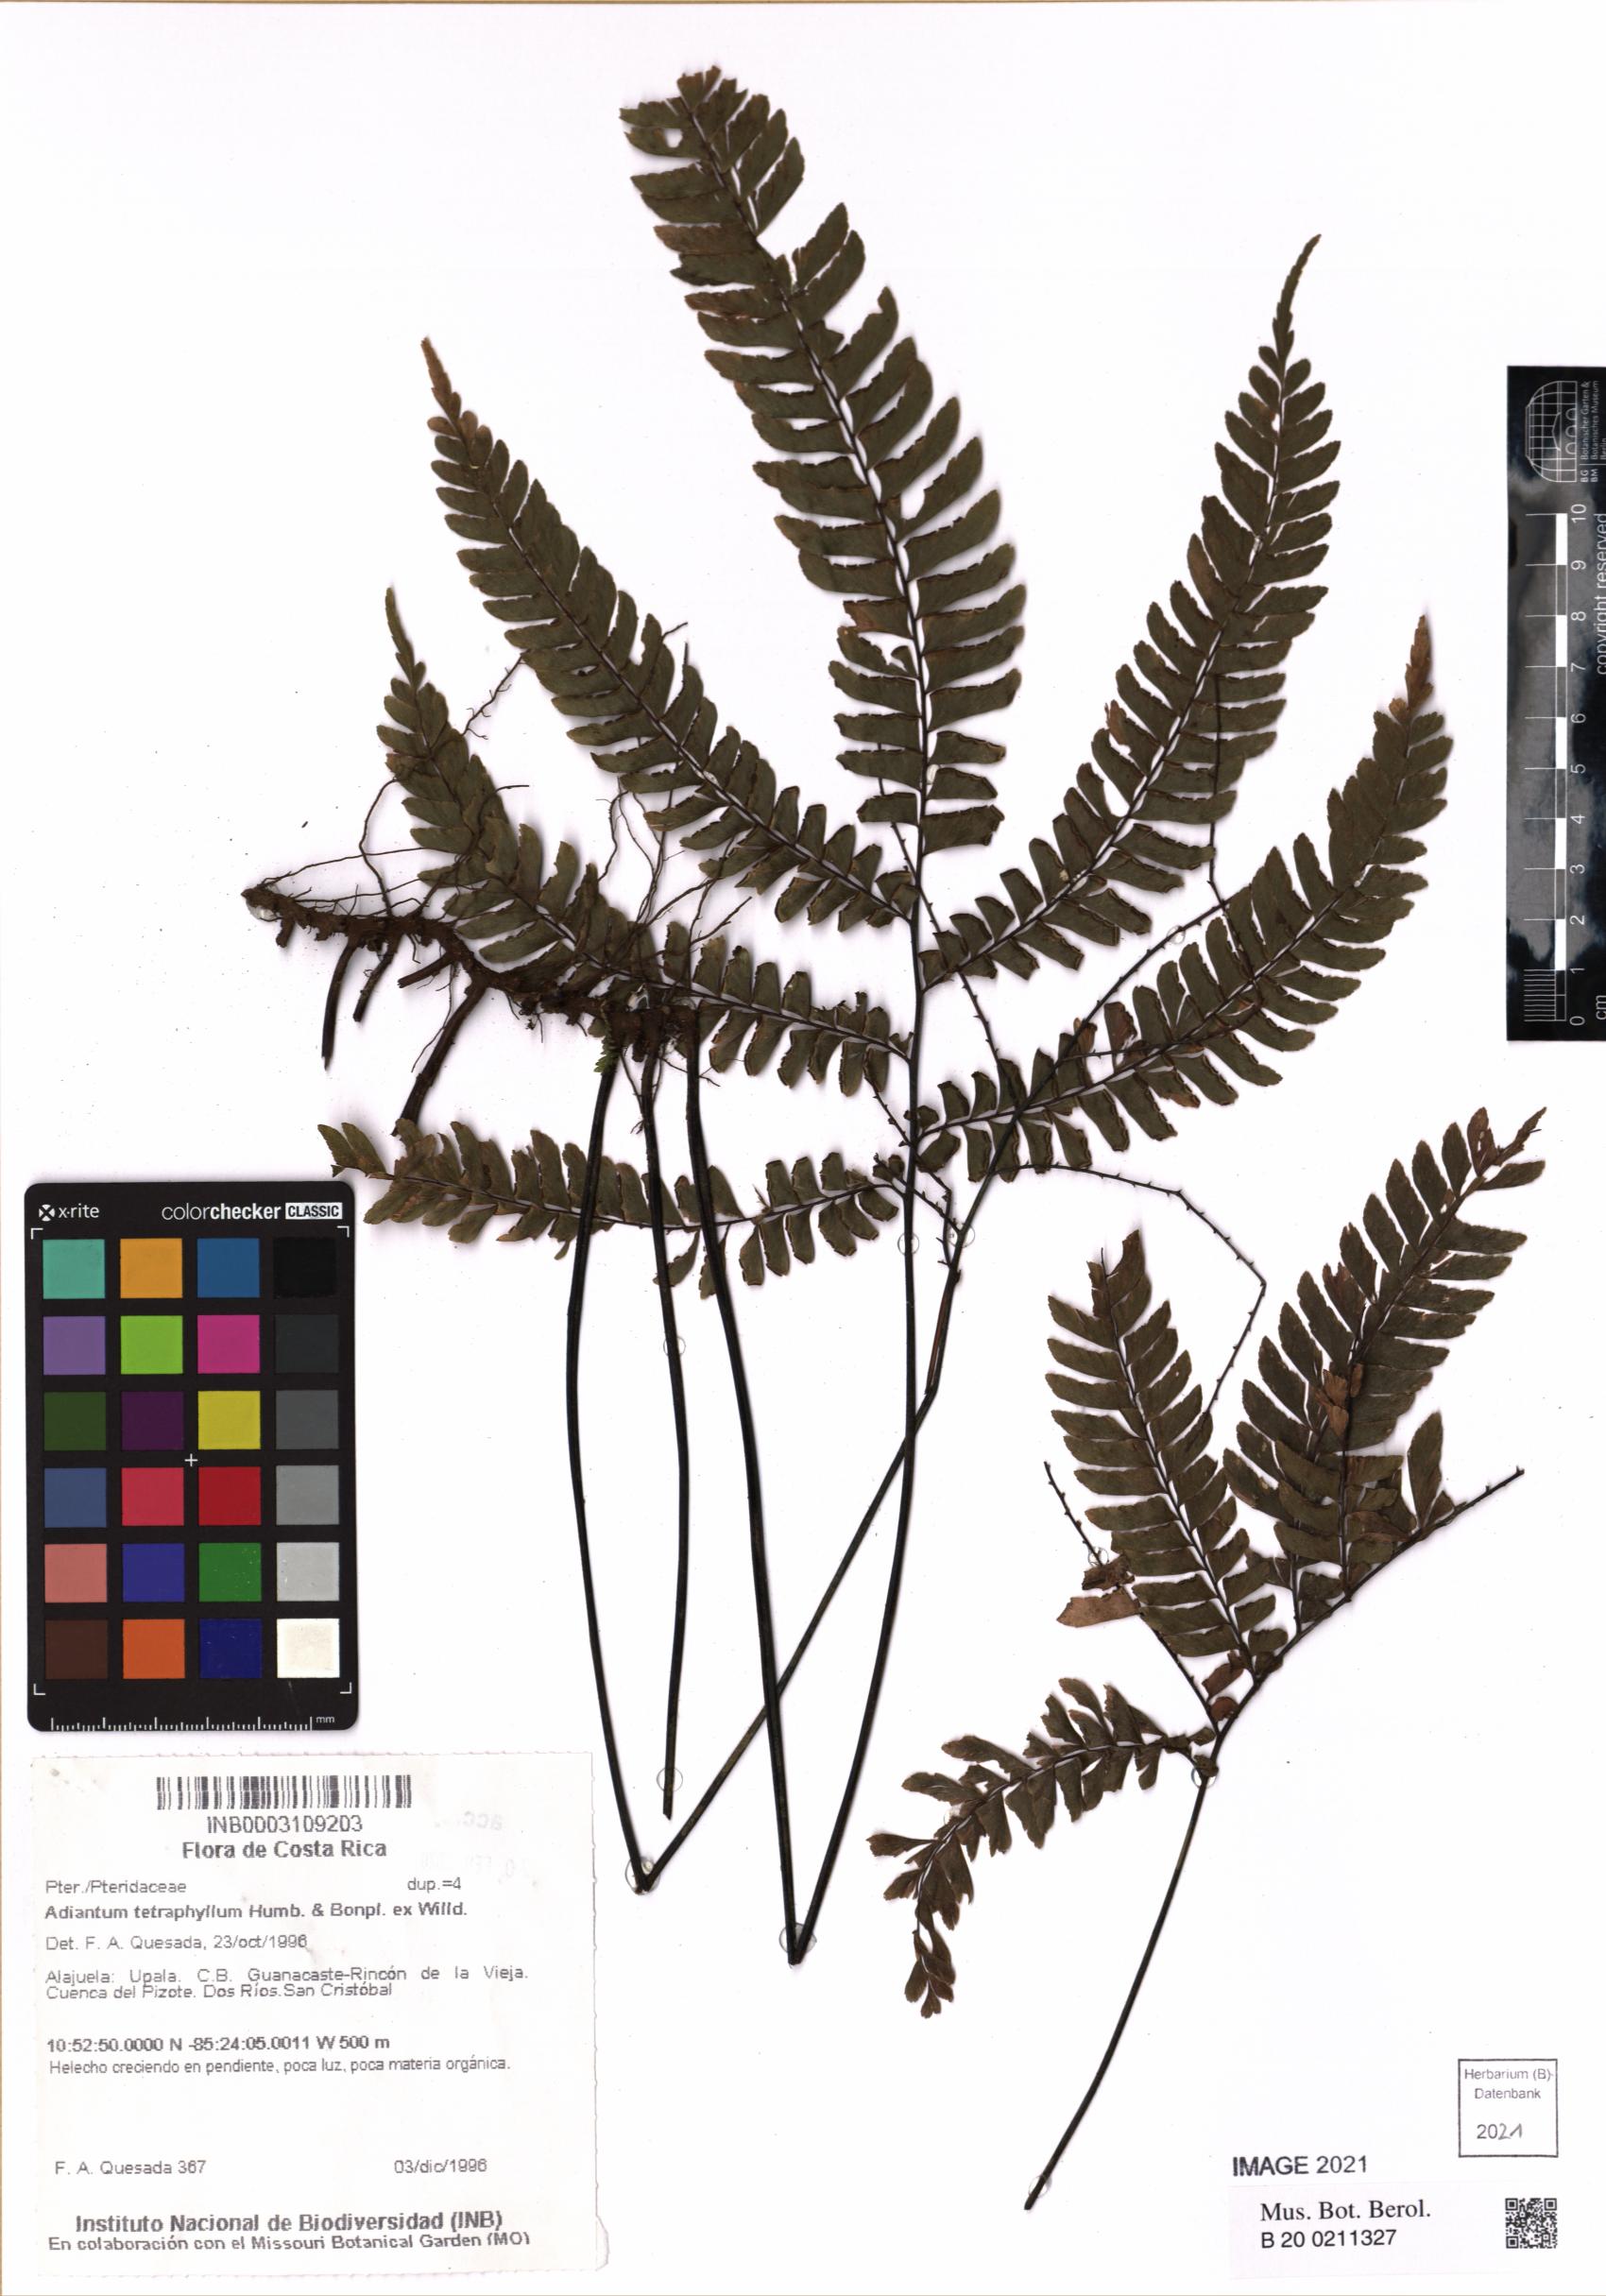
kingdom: Plantae
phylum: Tracheophyta
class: Polypodiopsida
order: Polypodiales
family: Pteridaceae
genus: Adiantum
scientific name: Adiantum tetraphyllum
